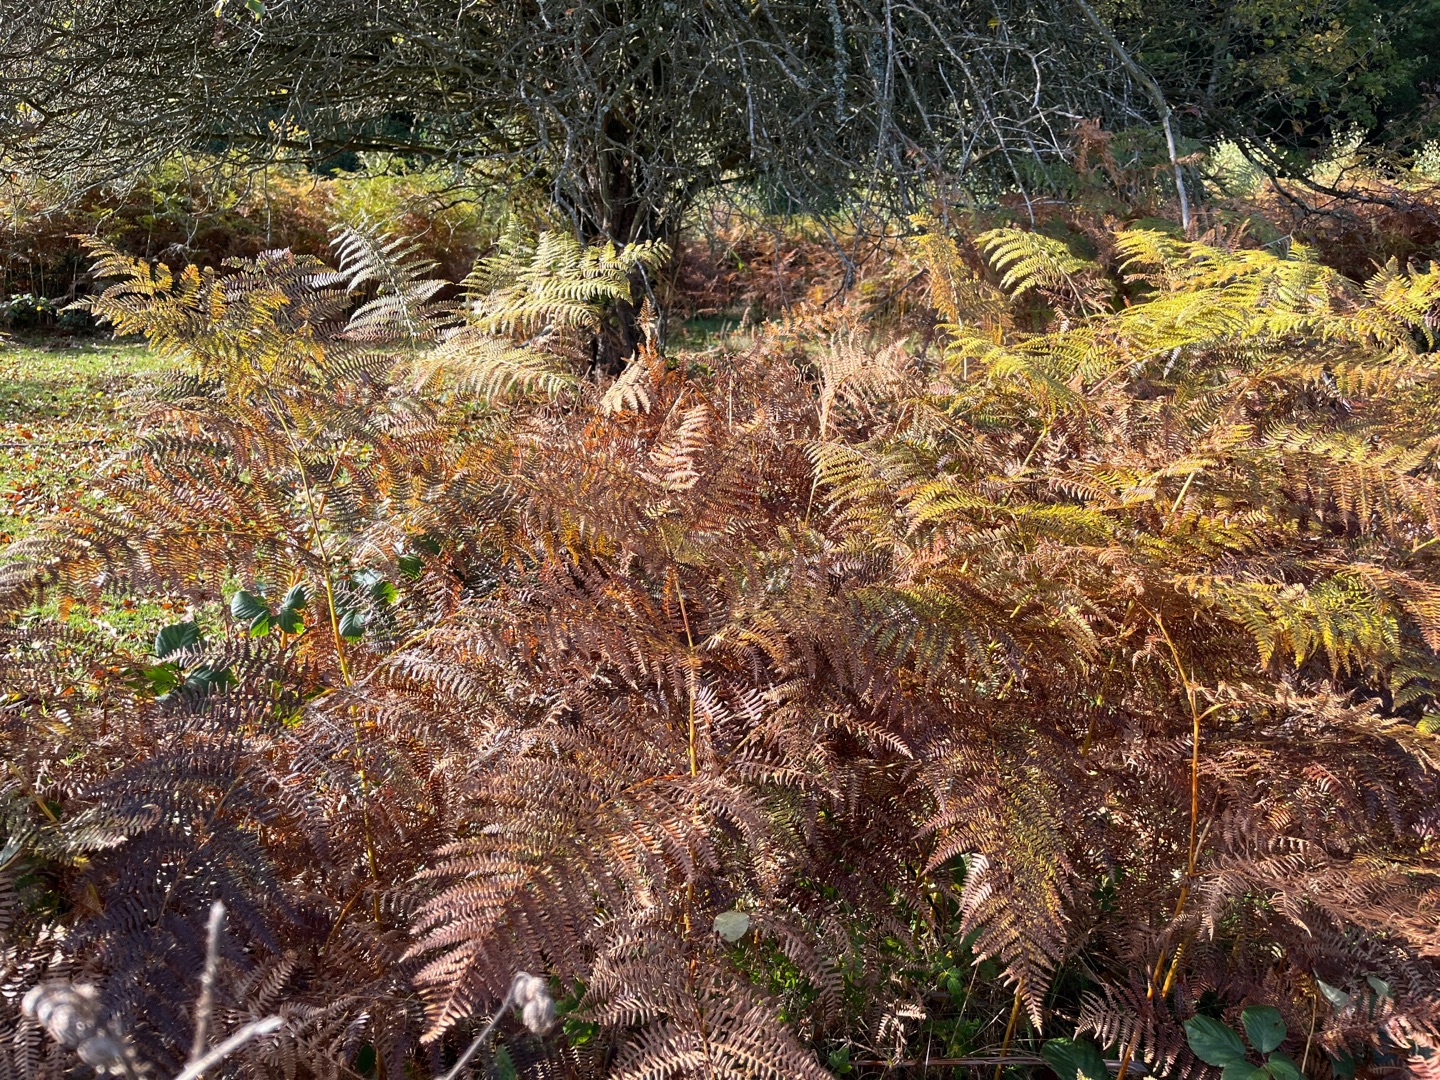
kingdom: Plantae
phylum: Tracheophyta
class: Polypodiopsida
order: Polypodiales
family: Dennstaedtiaceae
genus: Pteridium
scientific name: Pteridium aquilinum
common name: Ørnebregne
